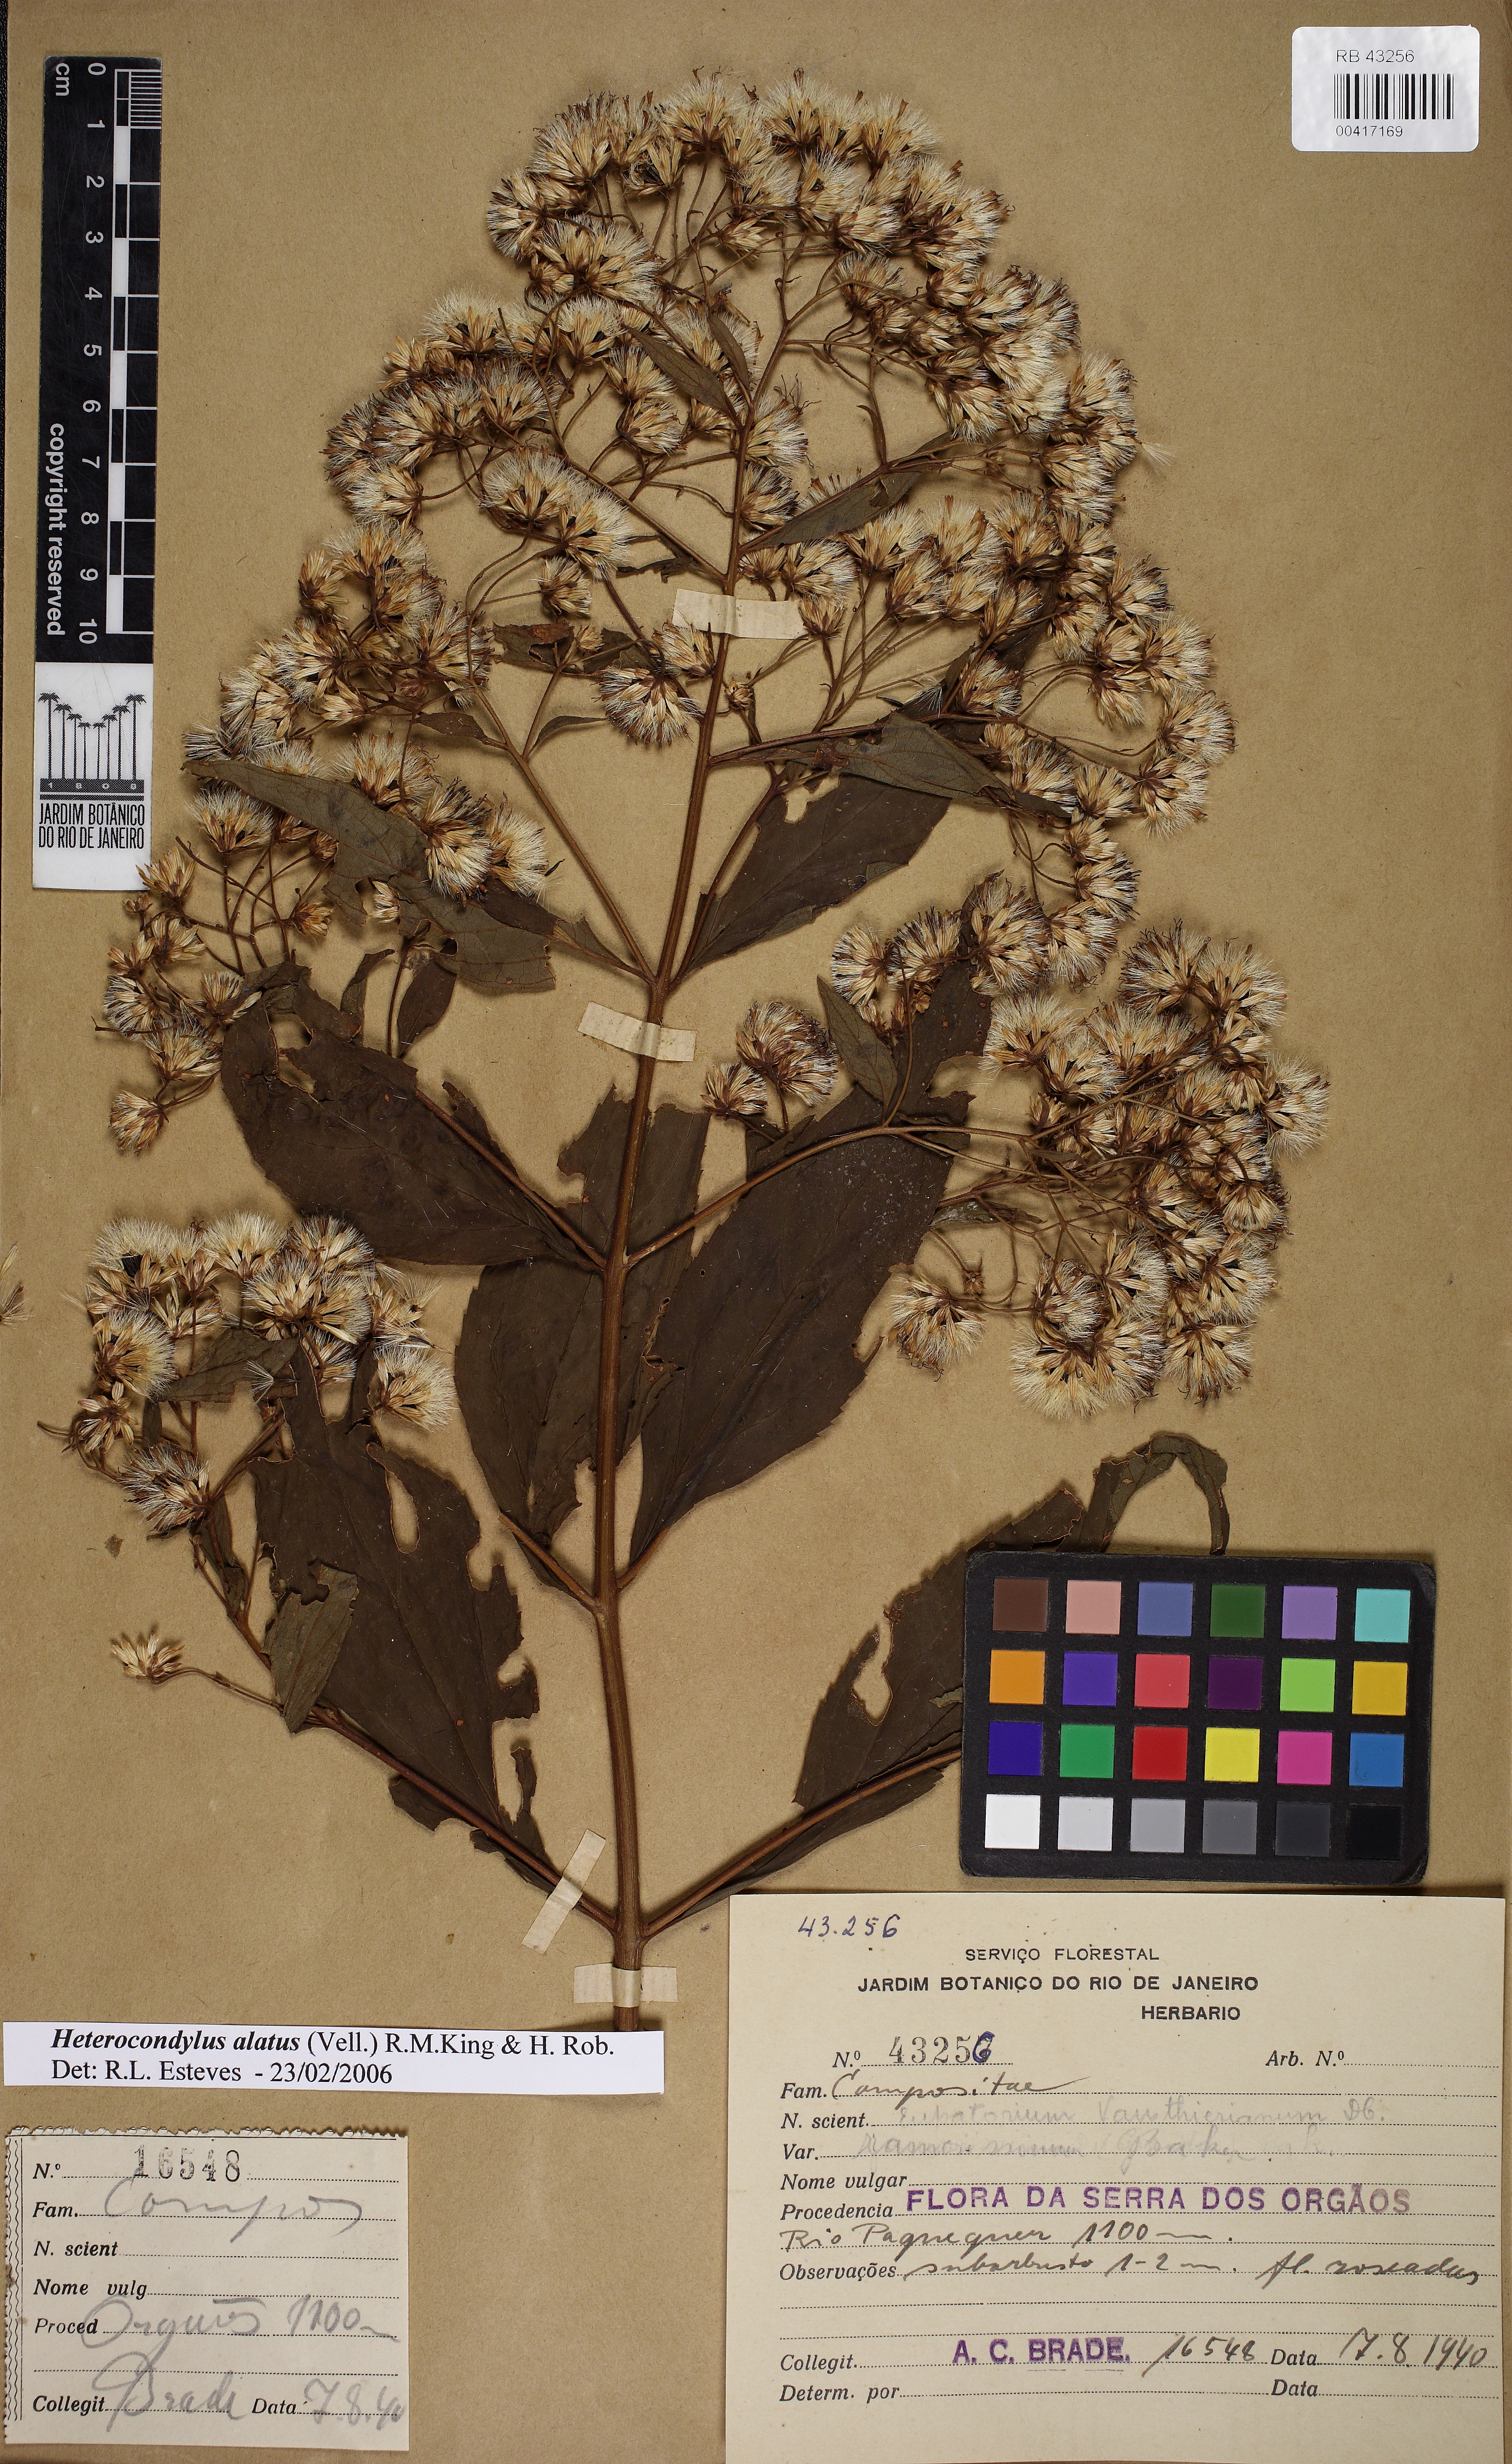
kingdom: Plantae
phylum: Tracheophyta
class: Magnoliopsida
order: Asterales
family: Asteraceae
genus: Heterocondylus
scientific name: Heterocondylus alatus
